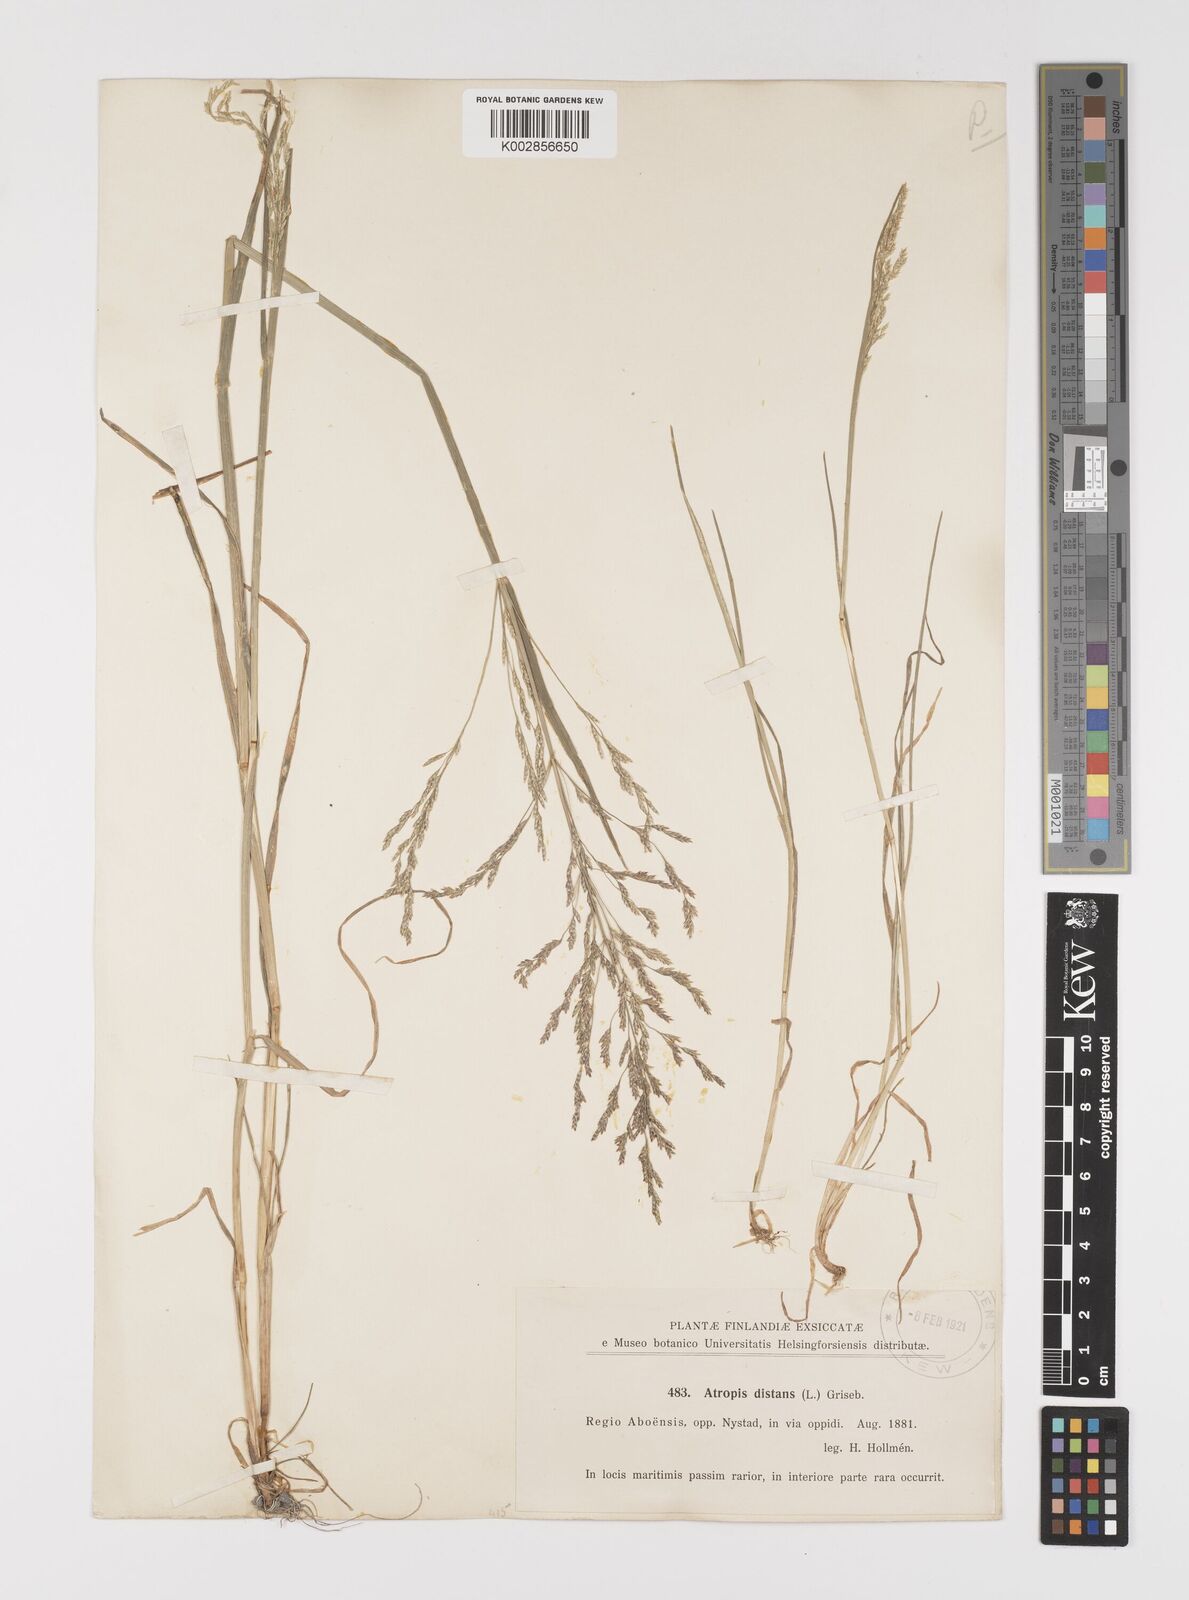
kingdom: Plantae
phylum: Tracheophyta
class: Liliopsida
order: Poales
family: Poaceae
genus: Puccinellia
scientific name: Puccinellia
